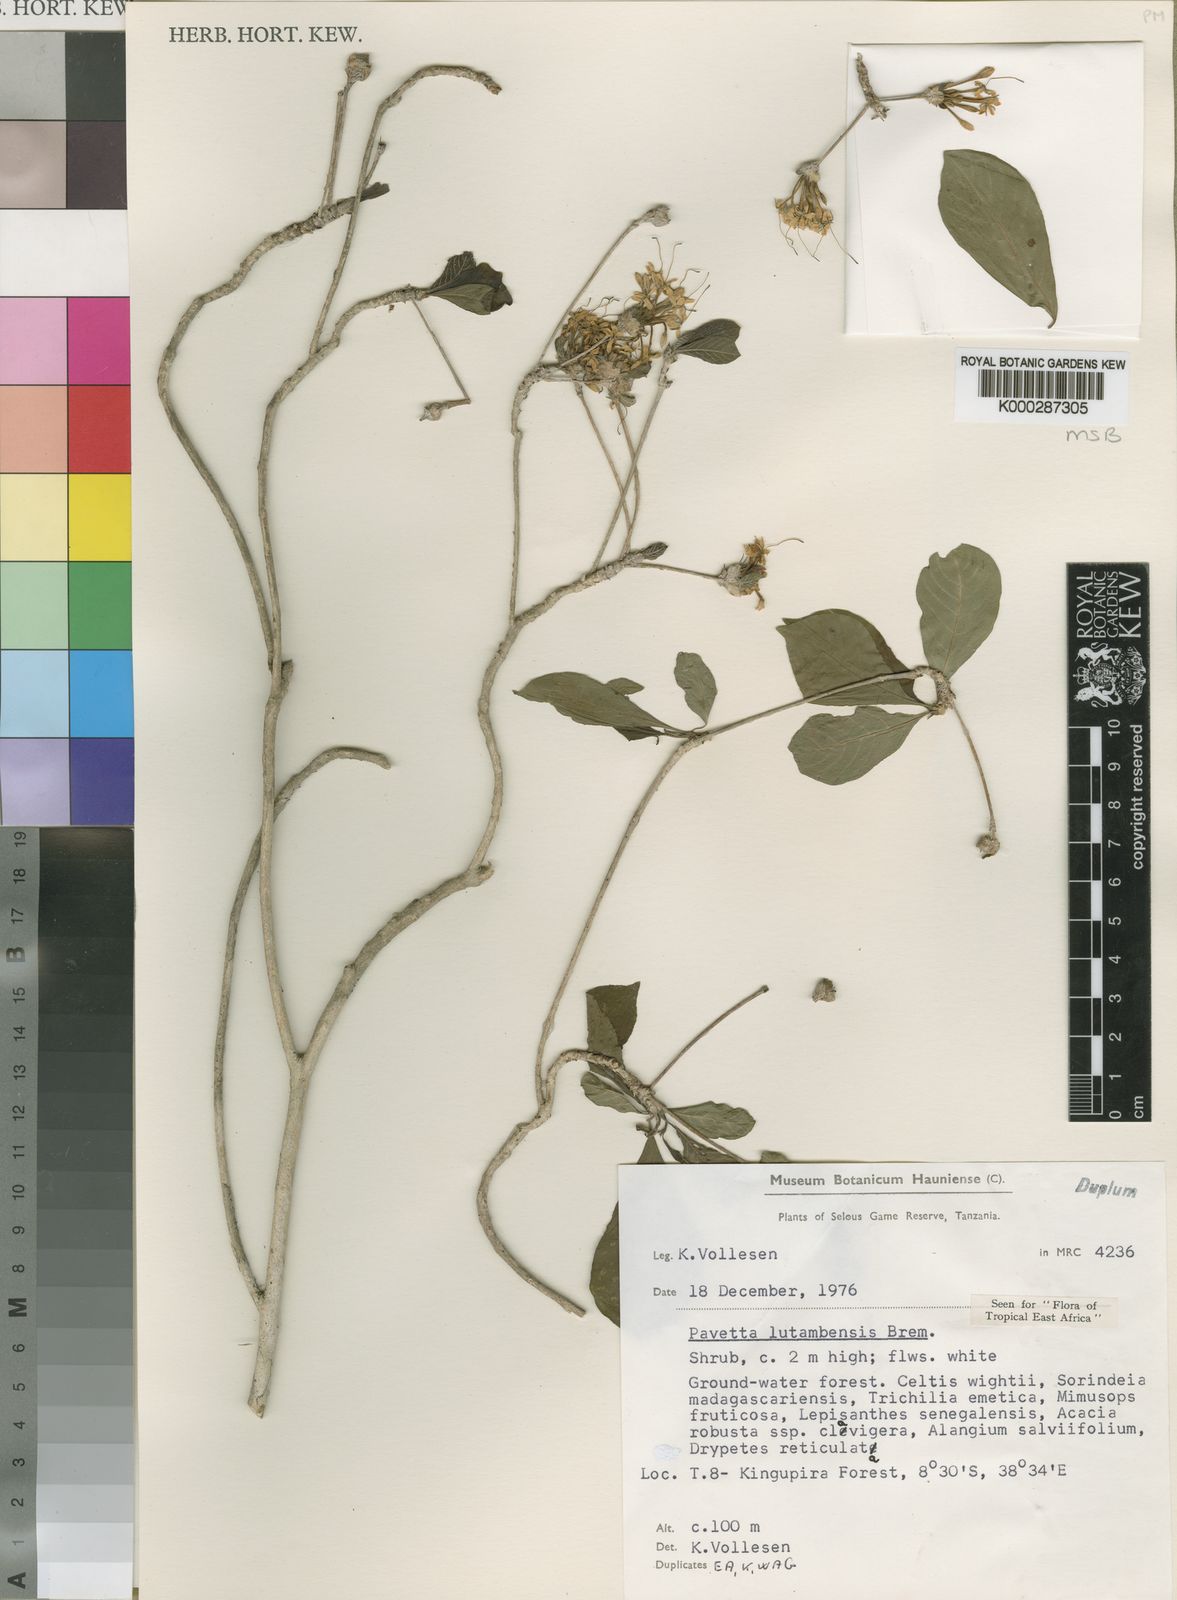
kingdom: Plantae
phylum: Tracheophyta
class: Magnoliopsida
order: Gentianales
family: Rubiaceae
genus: Pavetta
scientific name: Pavetta lutambensis
